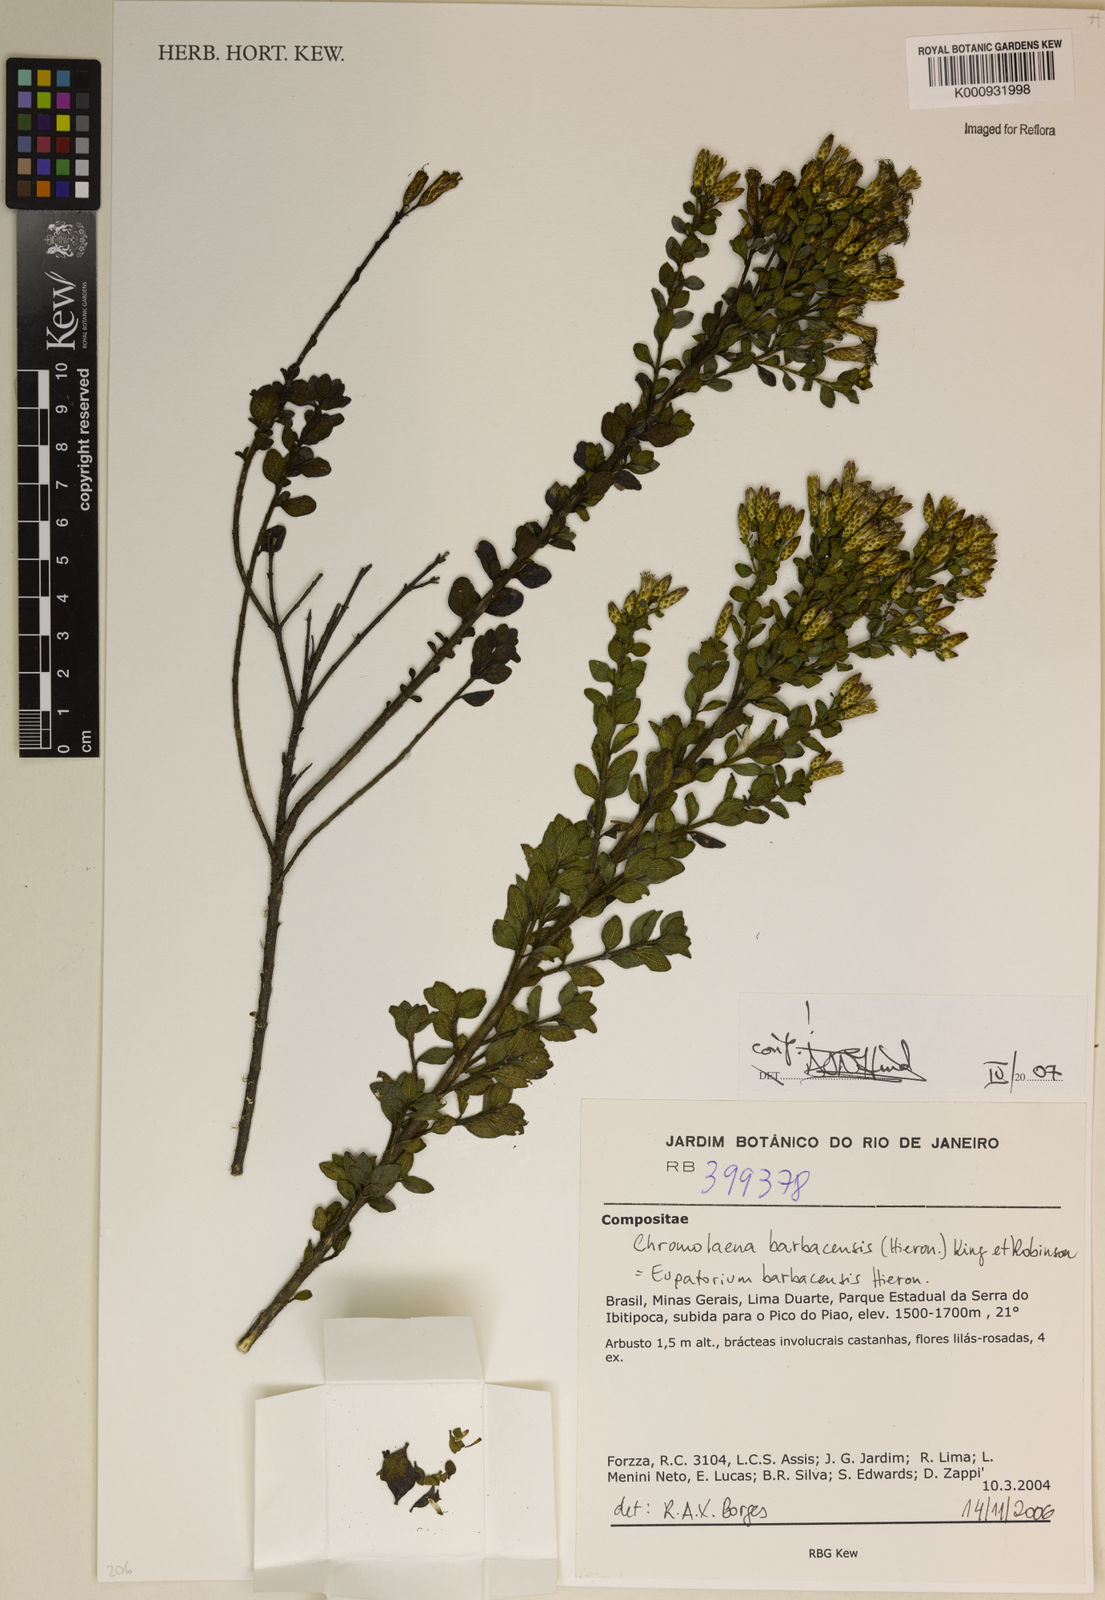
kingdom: Plantae
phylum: Tracheophyta
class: Magnoliopsida
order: Asterales
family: Asteraceae
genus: Chromolaena
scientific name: Chromolaena barbacensis
